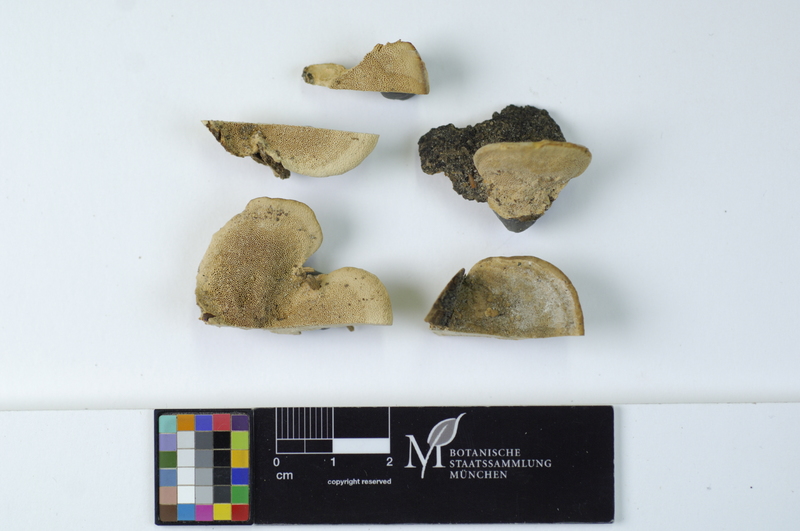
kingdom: Plantae
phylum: Tracheophyta
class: Magnoliopsida
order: Lamiales
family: Oleaceae
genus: Fraxinus
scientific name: Fraxinus
